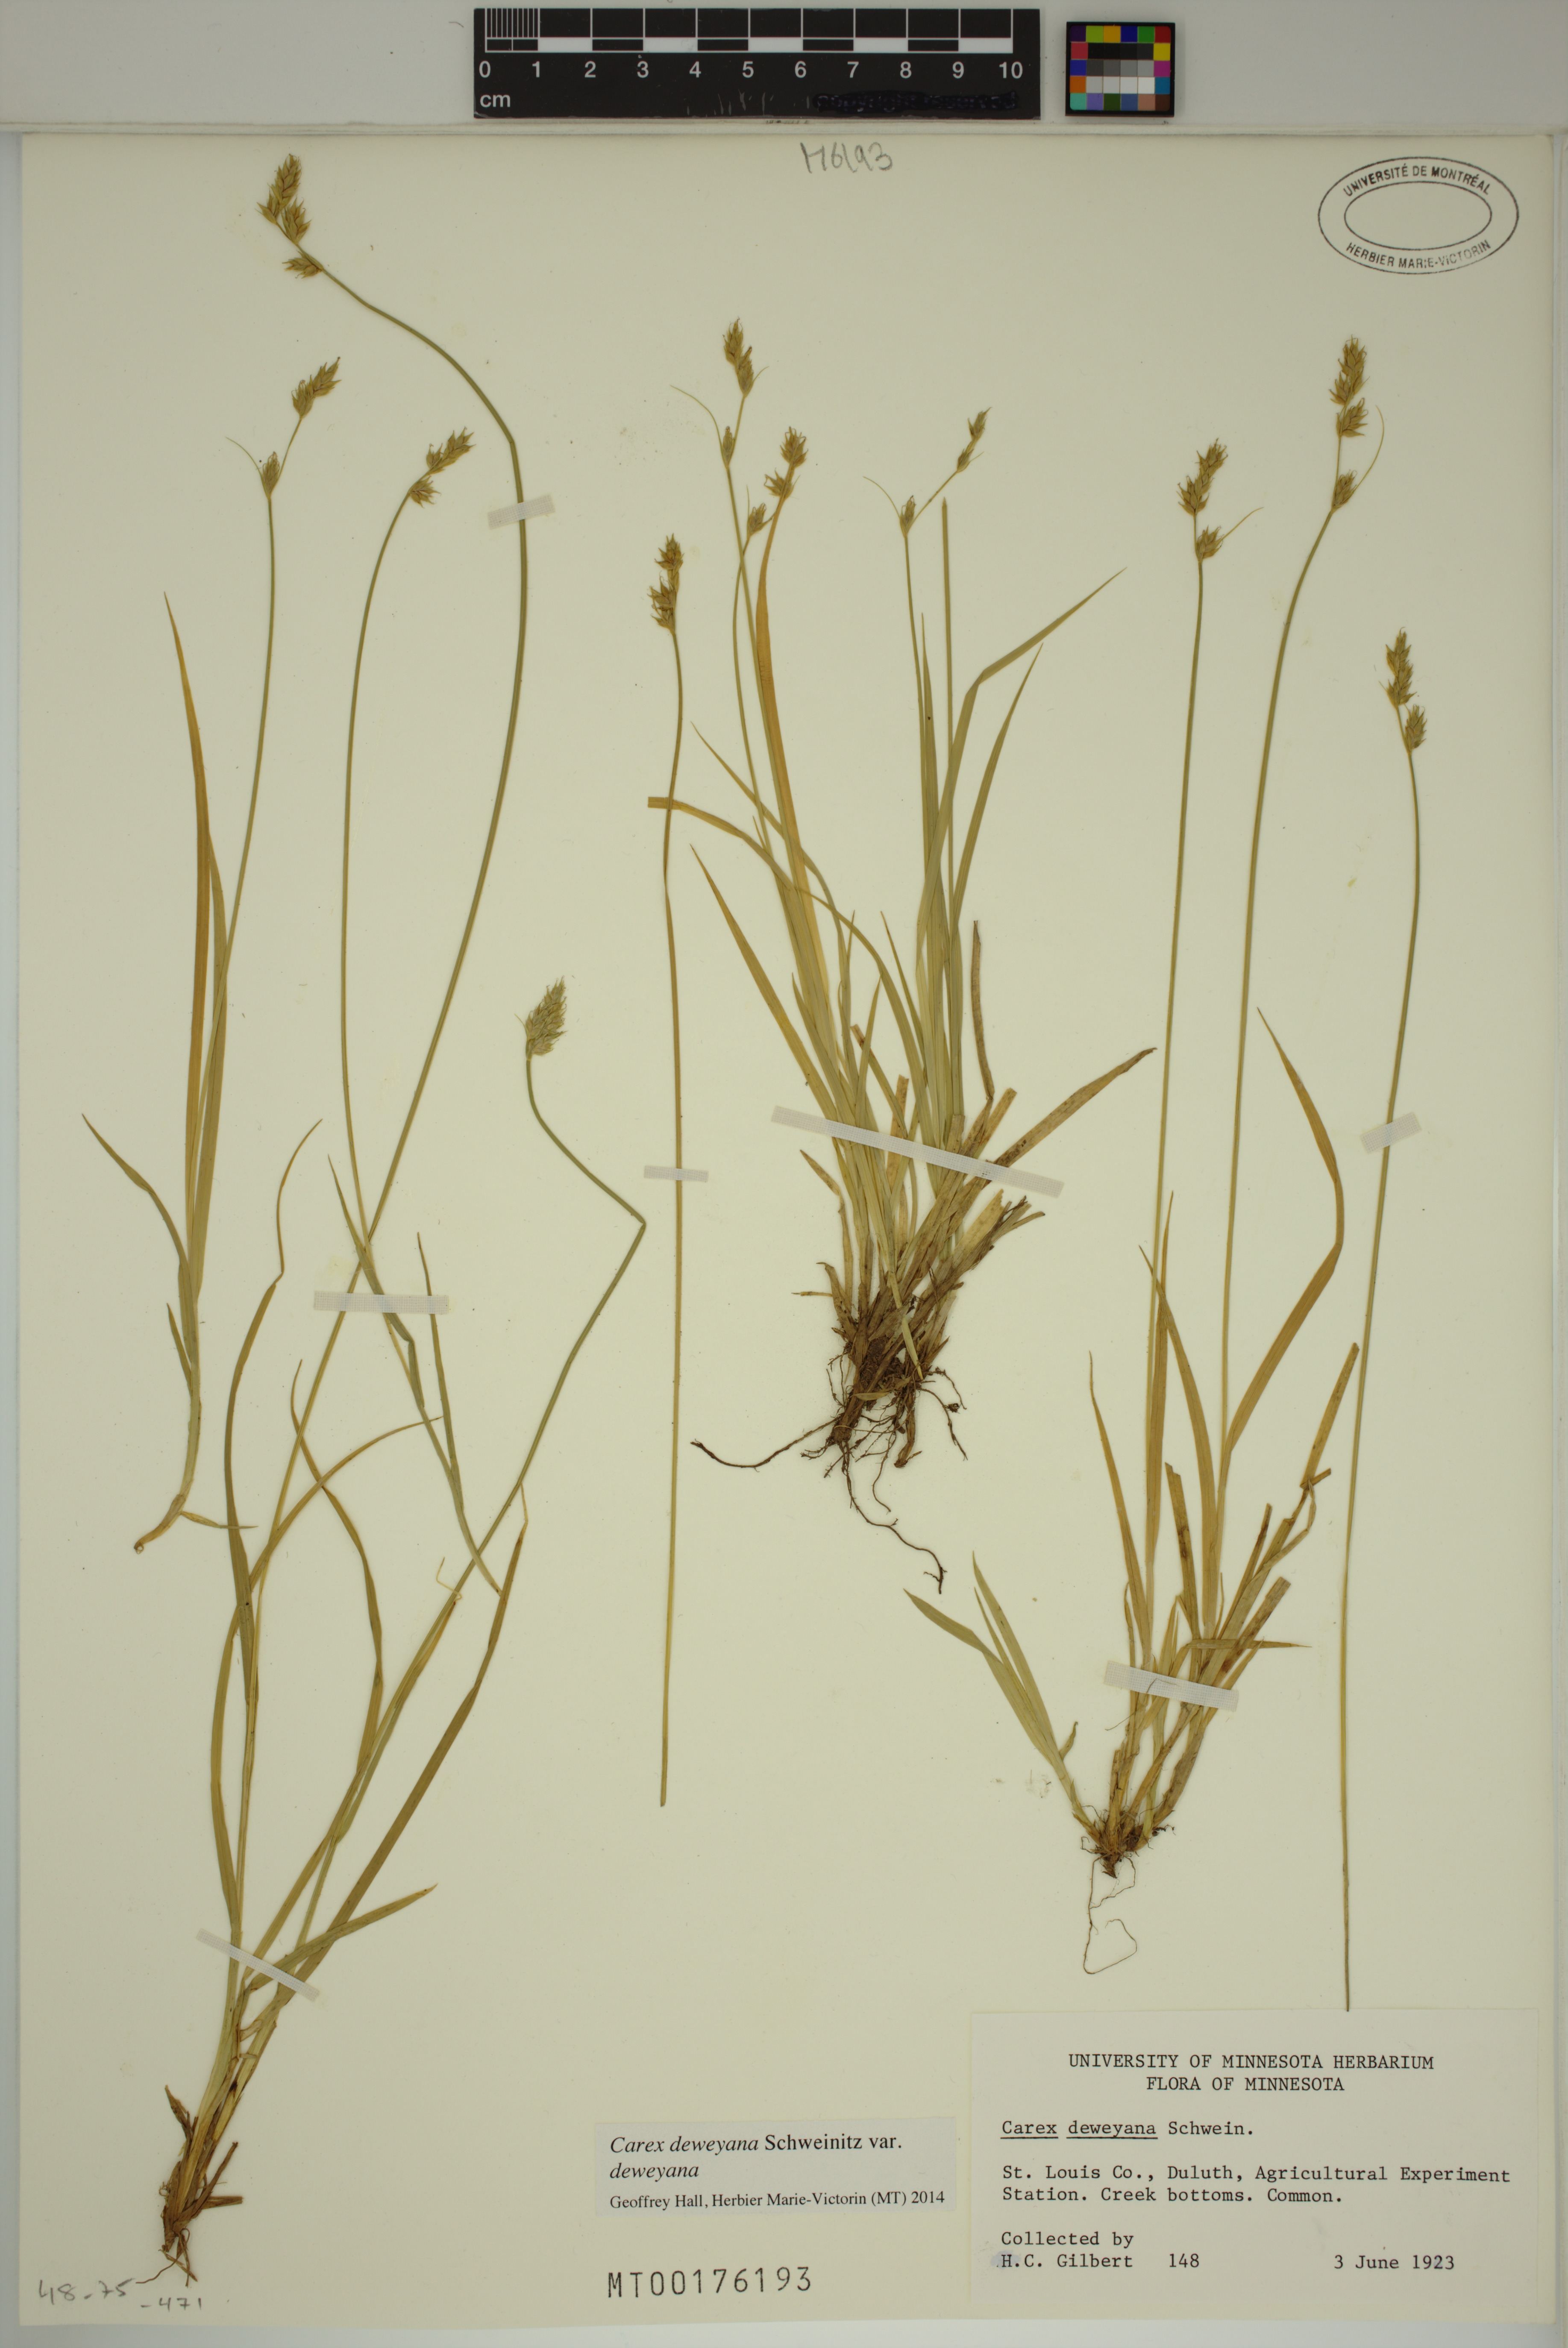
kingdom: Plantae
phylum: Tracheophyta
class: Liliopsida
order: Poales
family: Cyperaceae
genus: Carex
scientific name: Carex deweyana
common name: Dewey's sedge
